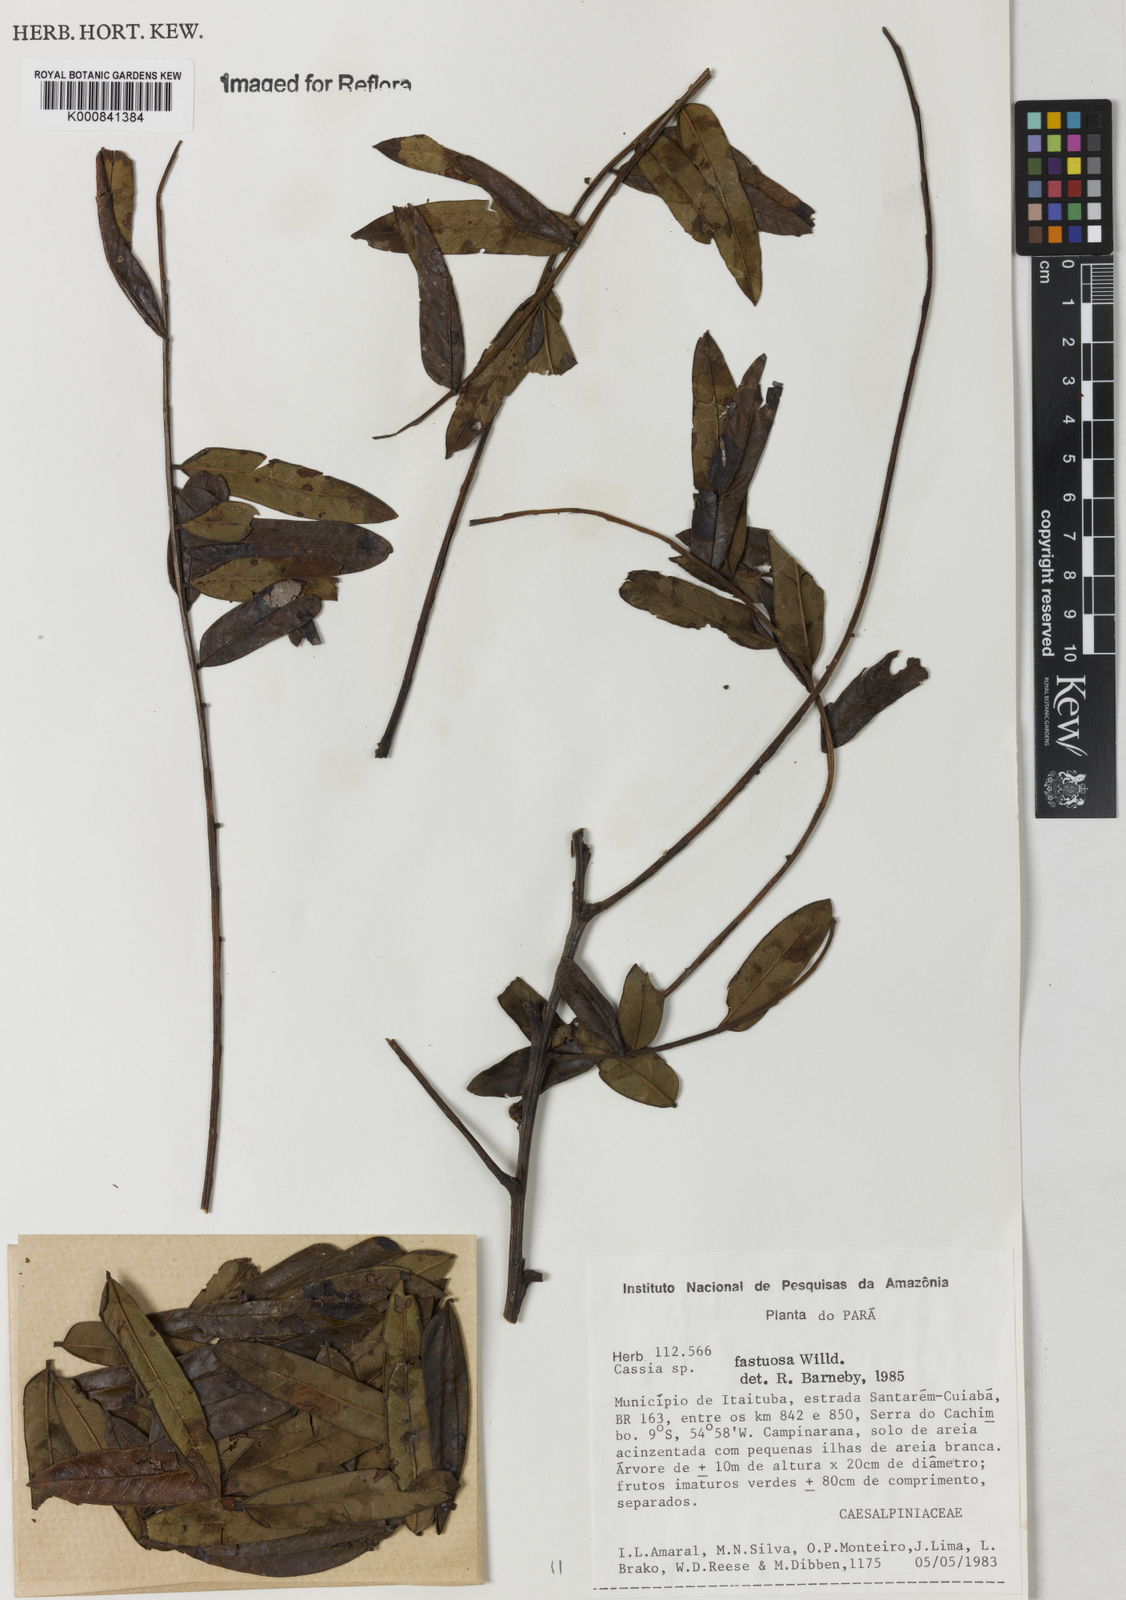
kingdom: Plantae
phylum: Tracheophyta
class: Magnoliopsida
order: Fabales
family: Fabaceae
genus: Cassia
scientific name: Cassia
